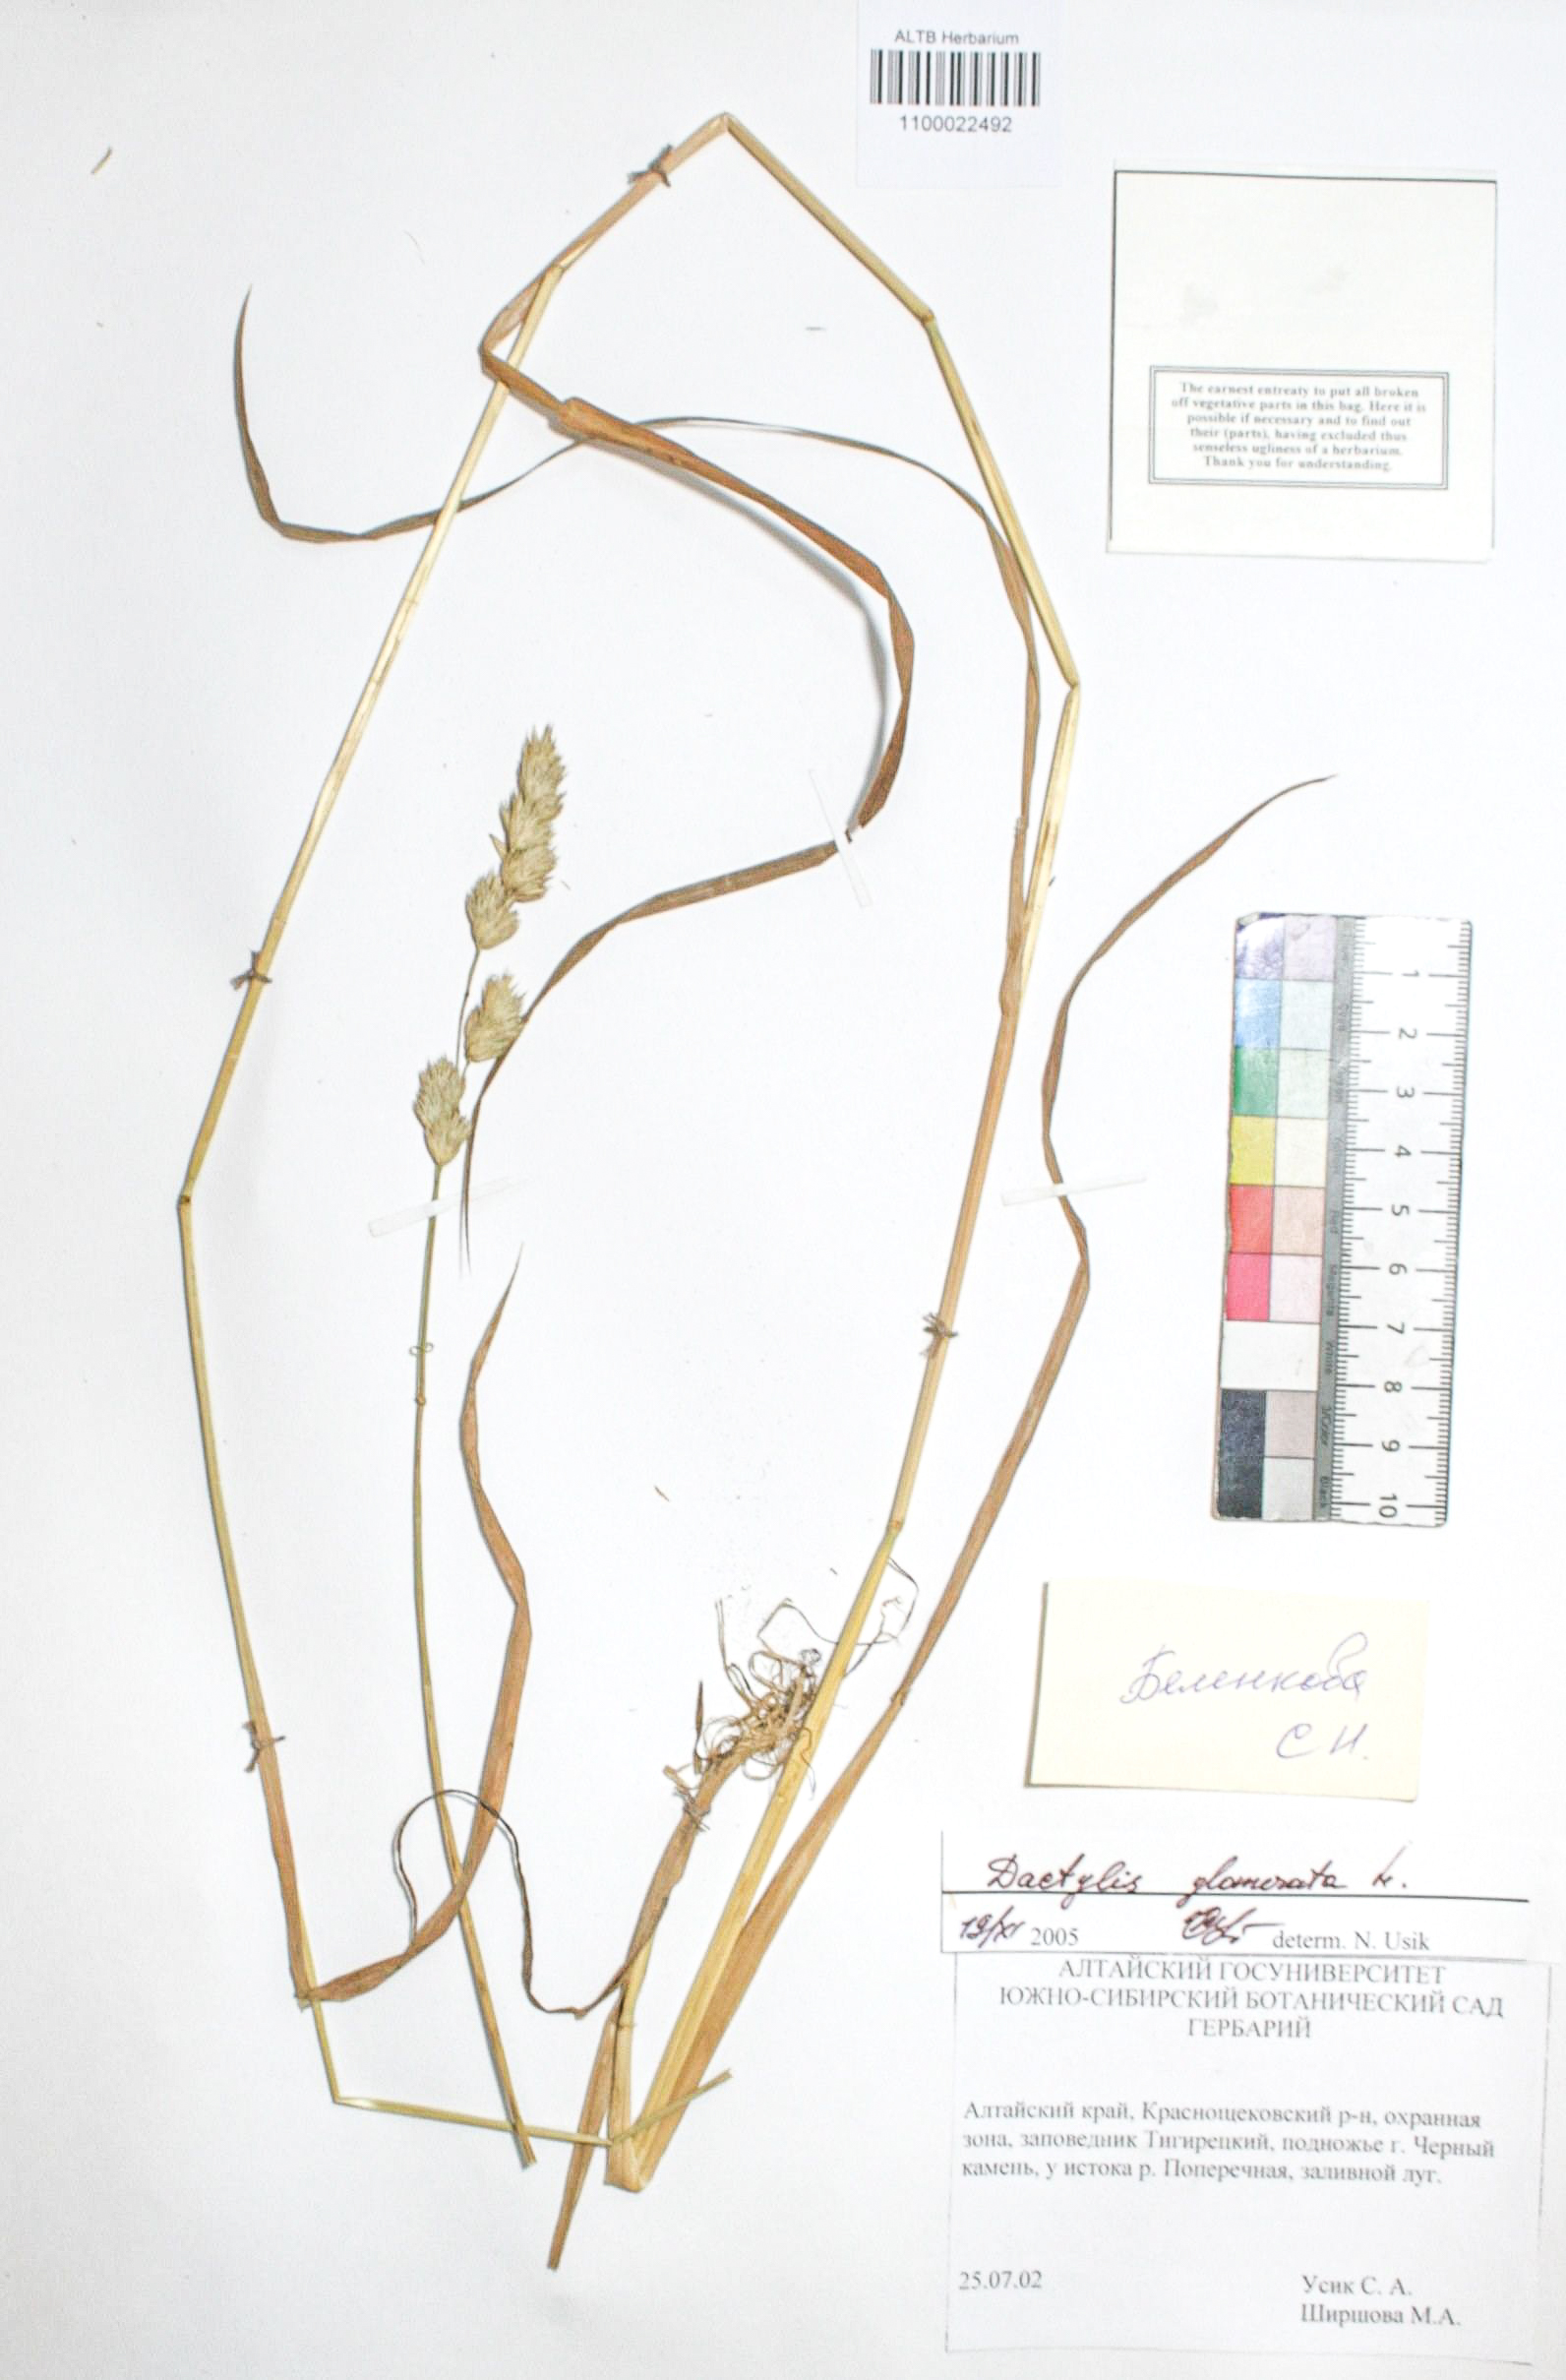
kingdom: Plantae
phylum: Tracheophyta
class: Liliopsida
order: Poales
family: Poaceae
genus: Dactylis
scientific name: Dactylis glomerata
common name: Orchardgrass
